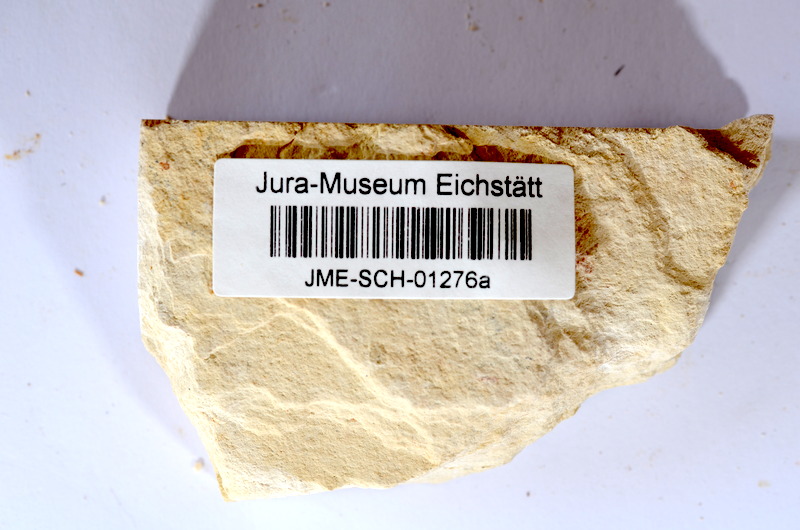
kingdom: Animalia
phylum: Chordata
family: Ascalaboidae
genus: Tharsis
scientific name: Tharsis dubius
